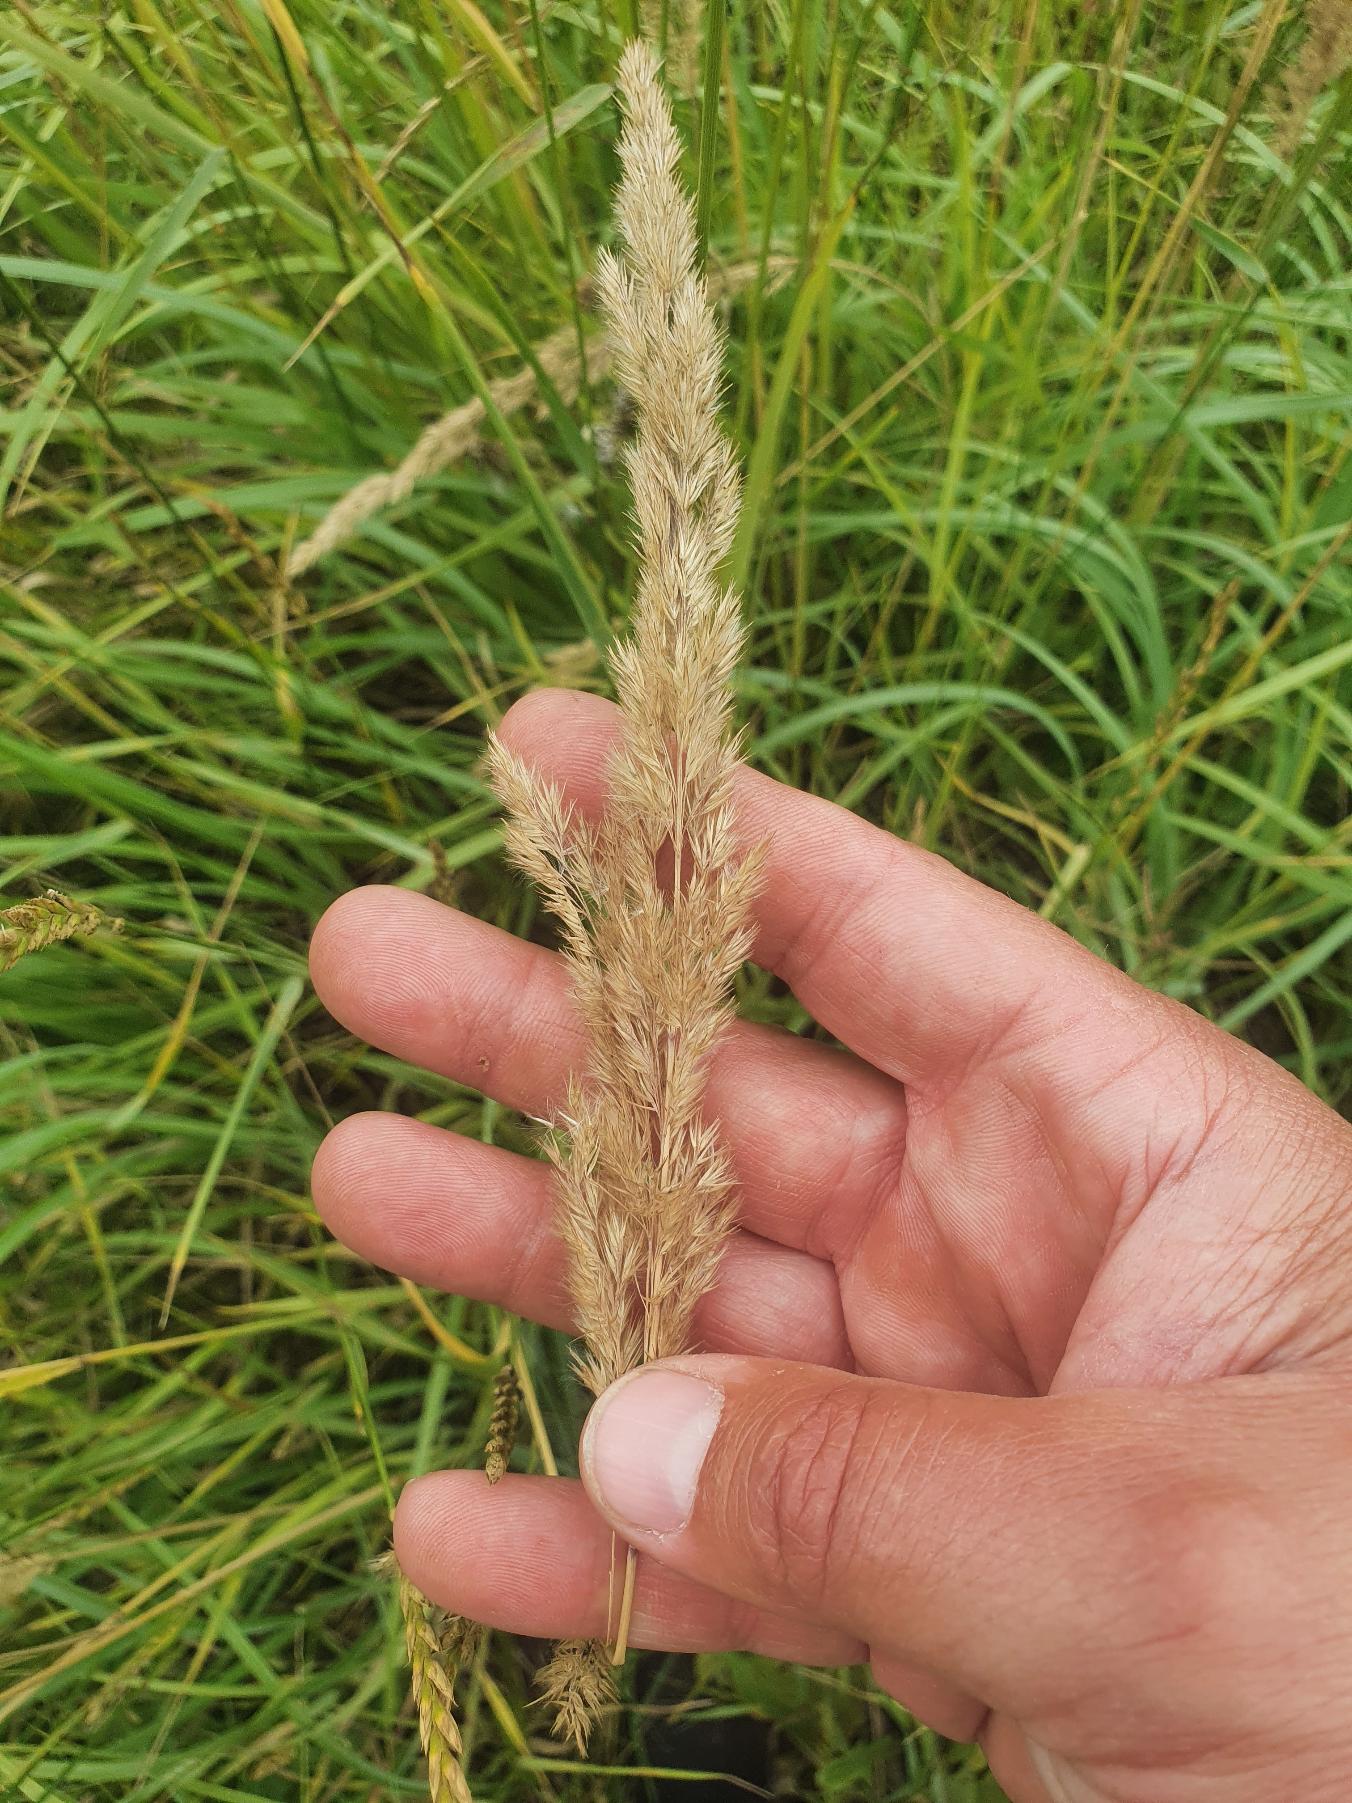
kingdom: Plantae
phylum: Tracheophyta
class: Liliopsida
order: Poales
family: Poaceae
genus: Calamagrostis
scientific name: Calamagrostis epigejos
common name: Bjerg-rørhvene
